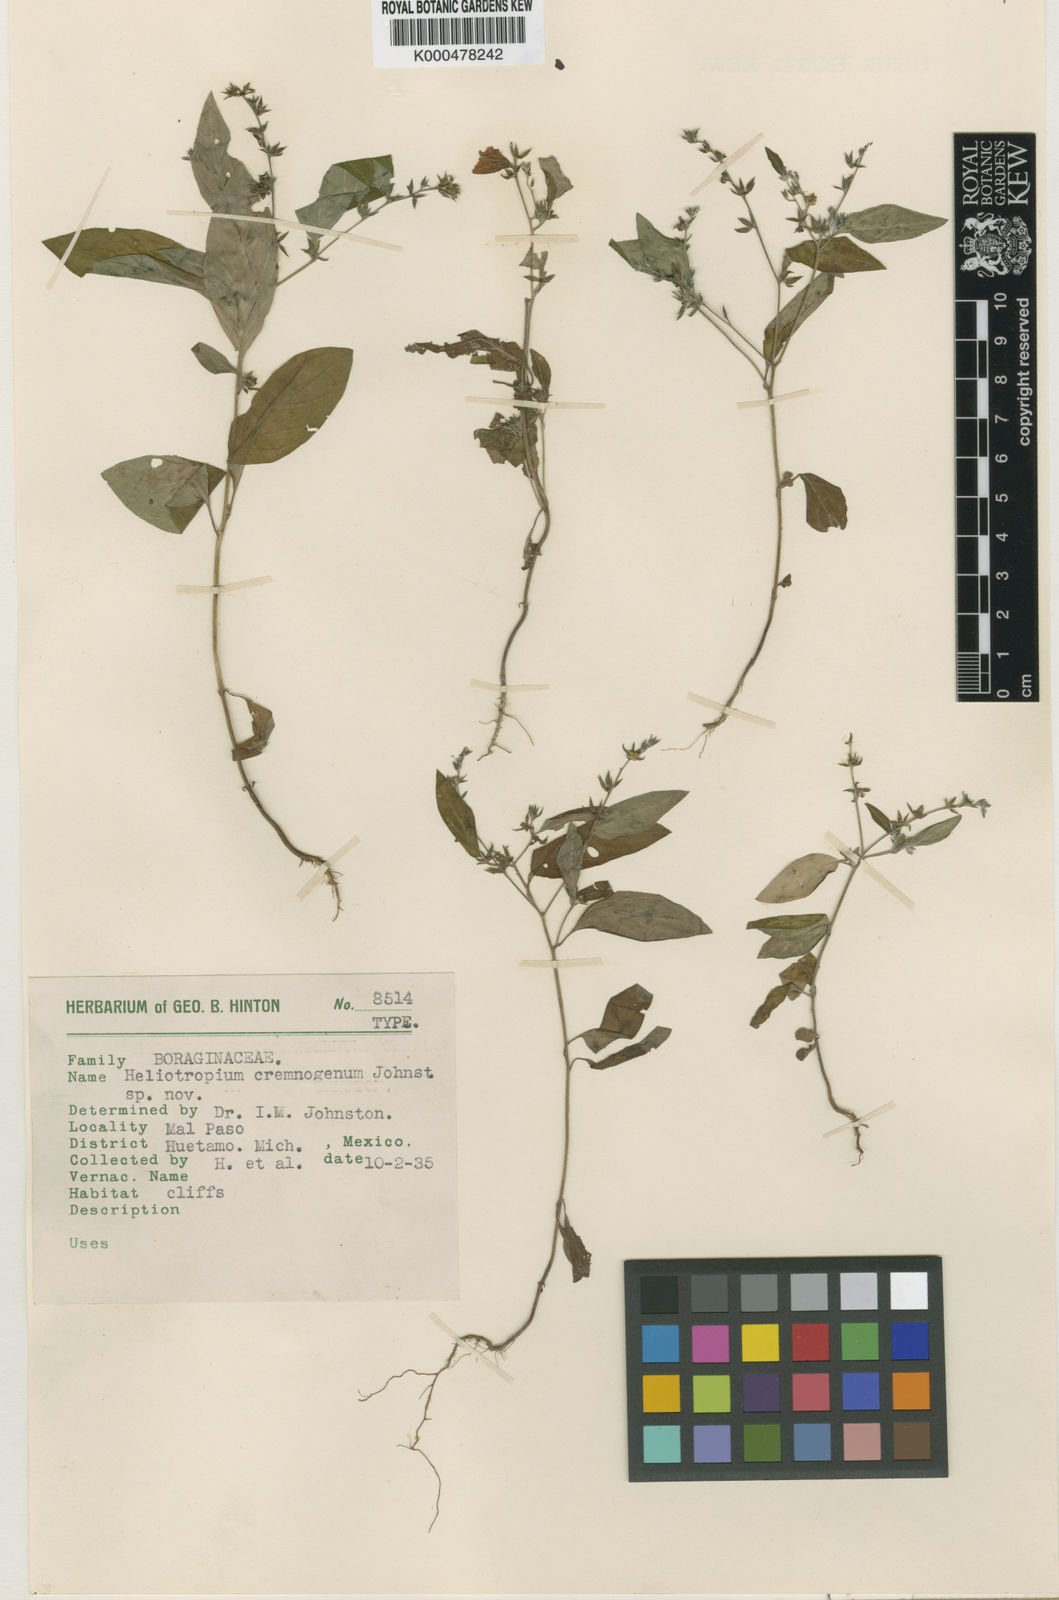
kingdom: Plantae
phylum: Tracheophyta
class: Magnoliopsida
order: Boraginales
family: Heliotropiaceae
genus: Euploca
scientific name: Euploca cremnogena
